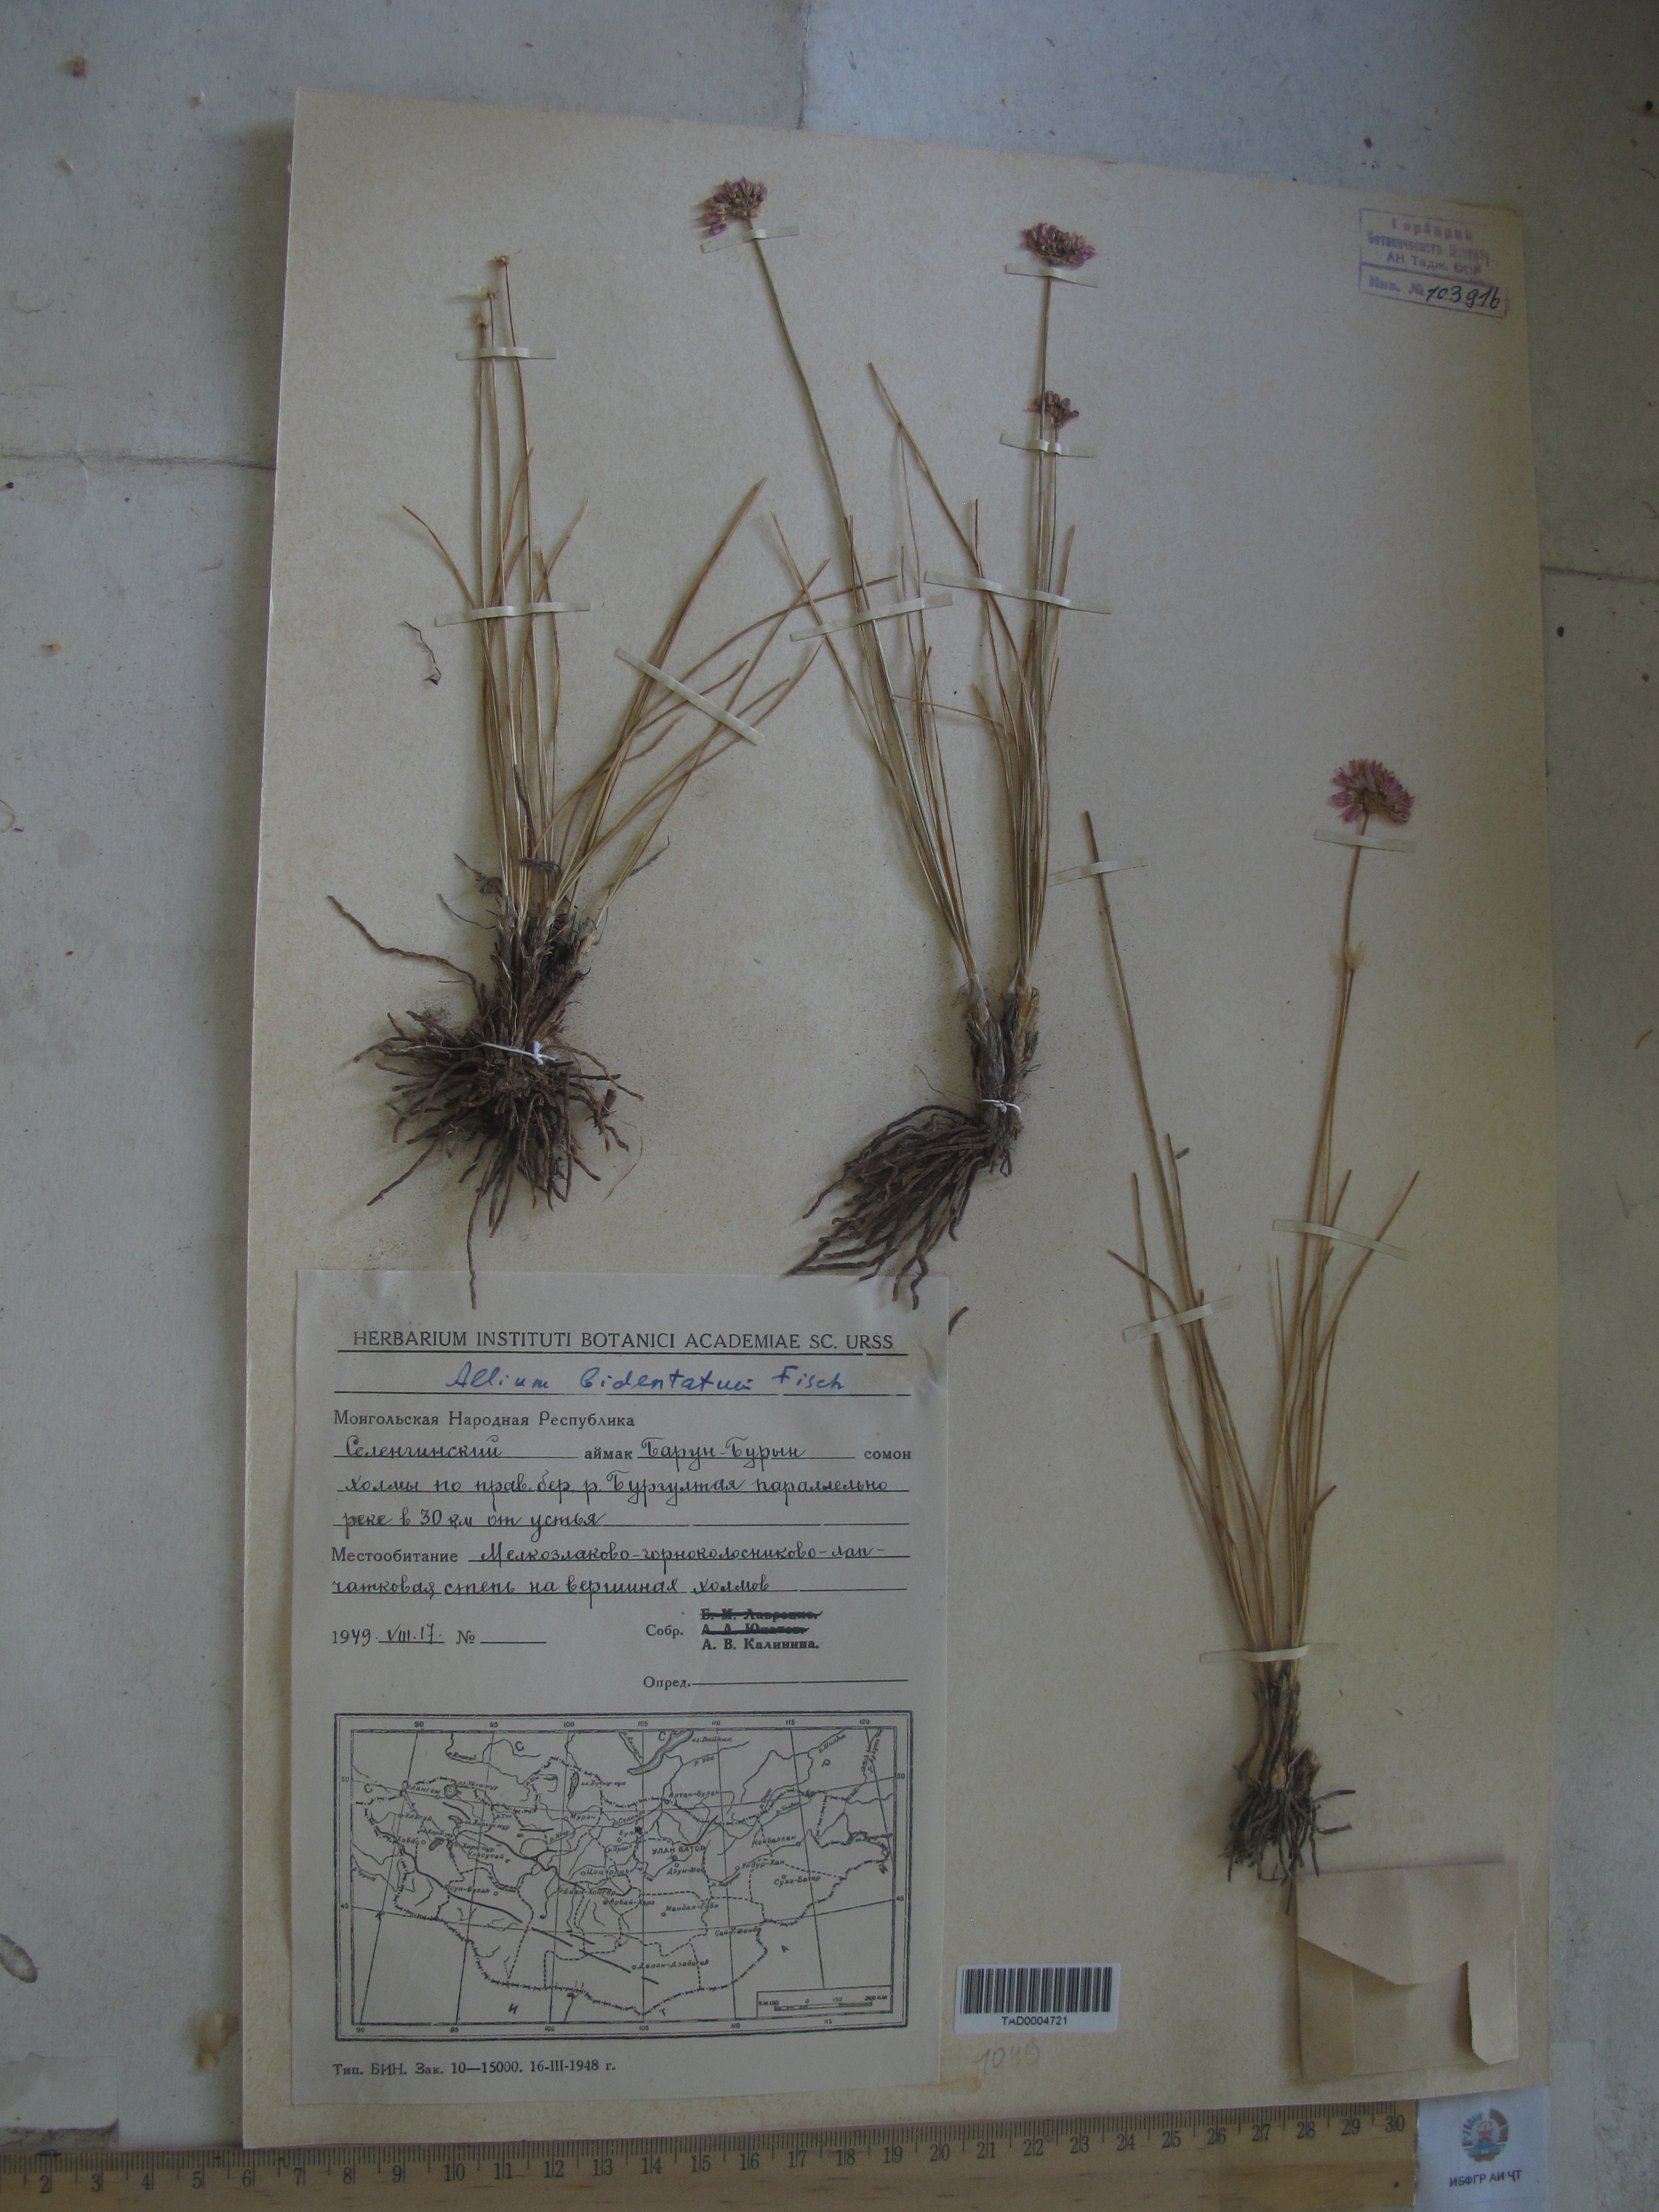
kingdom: Plantae
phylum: Tracheophyta
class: Liliopsida
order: Asparagales
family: Amaryllidaceae
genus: Allium
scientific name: Allium bidentatum
